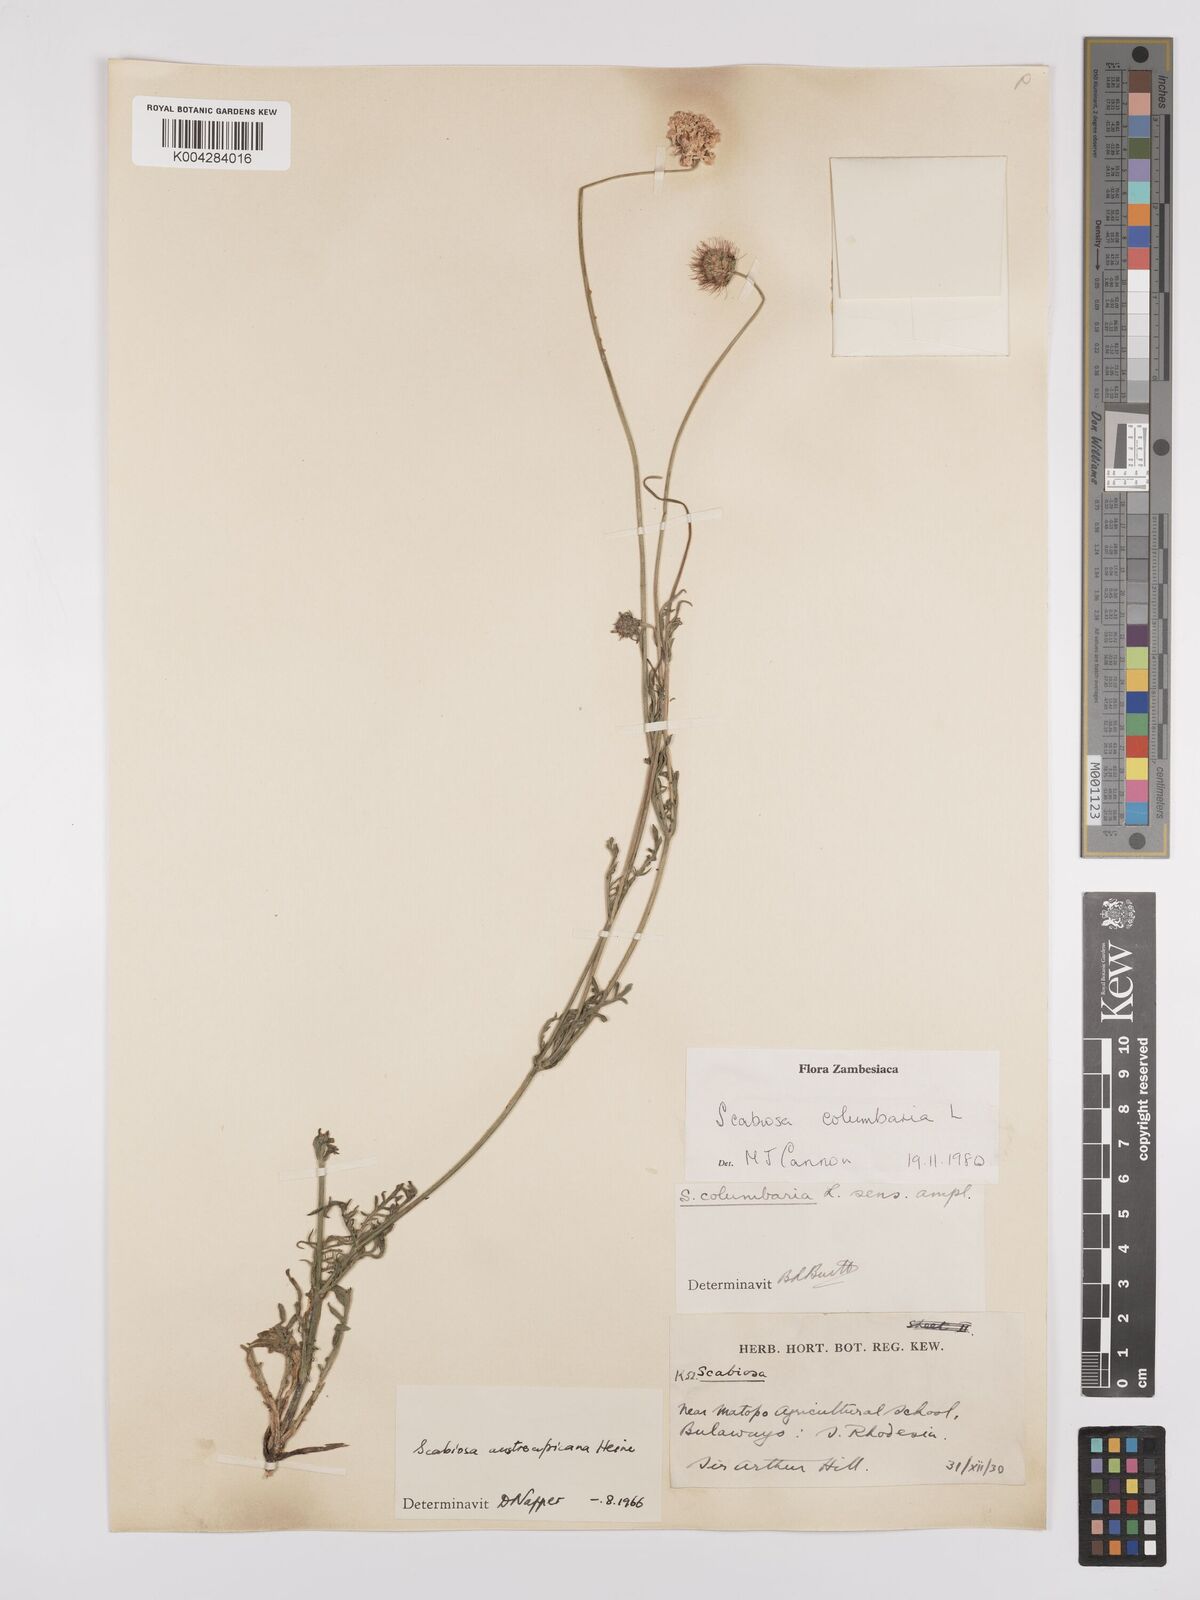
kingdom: Plantae
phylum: Tracheophyta
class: Magnoliopsida
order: Dipsacales
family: Caprifoliaceae
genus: Scabiosa
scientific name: Scabiosa austroafricana
